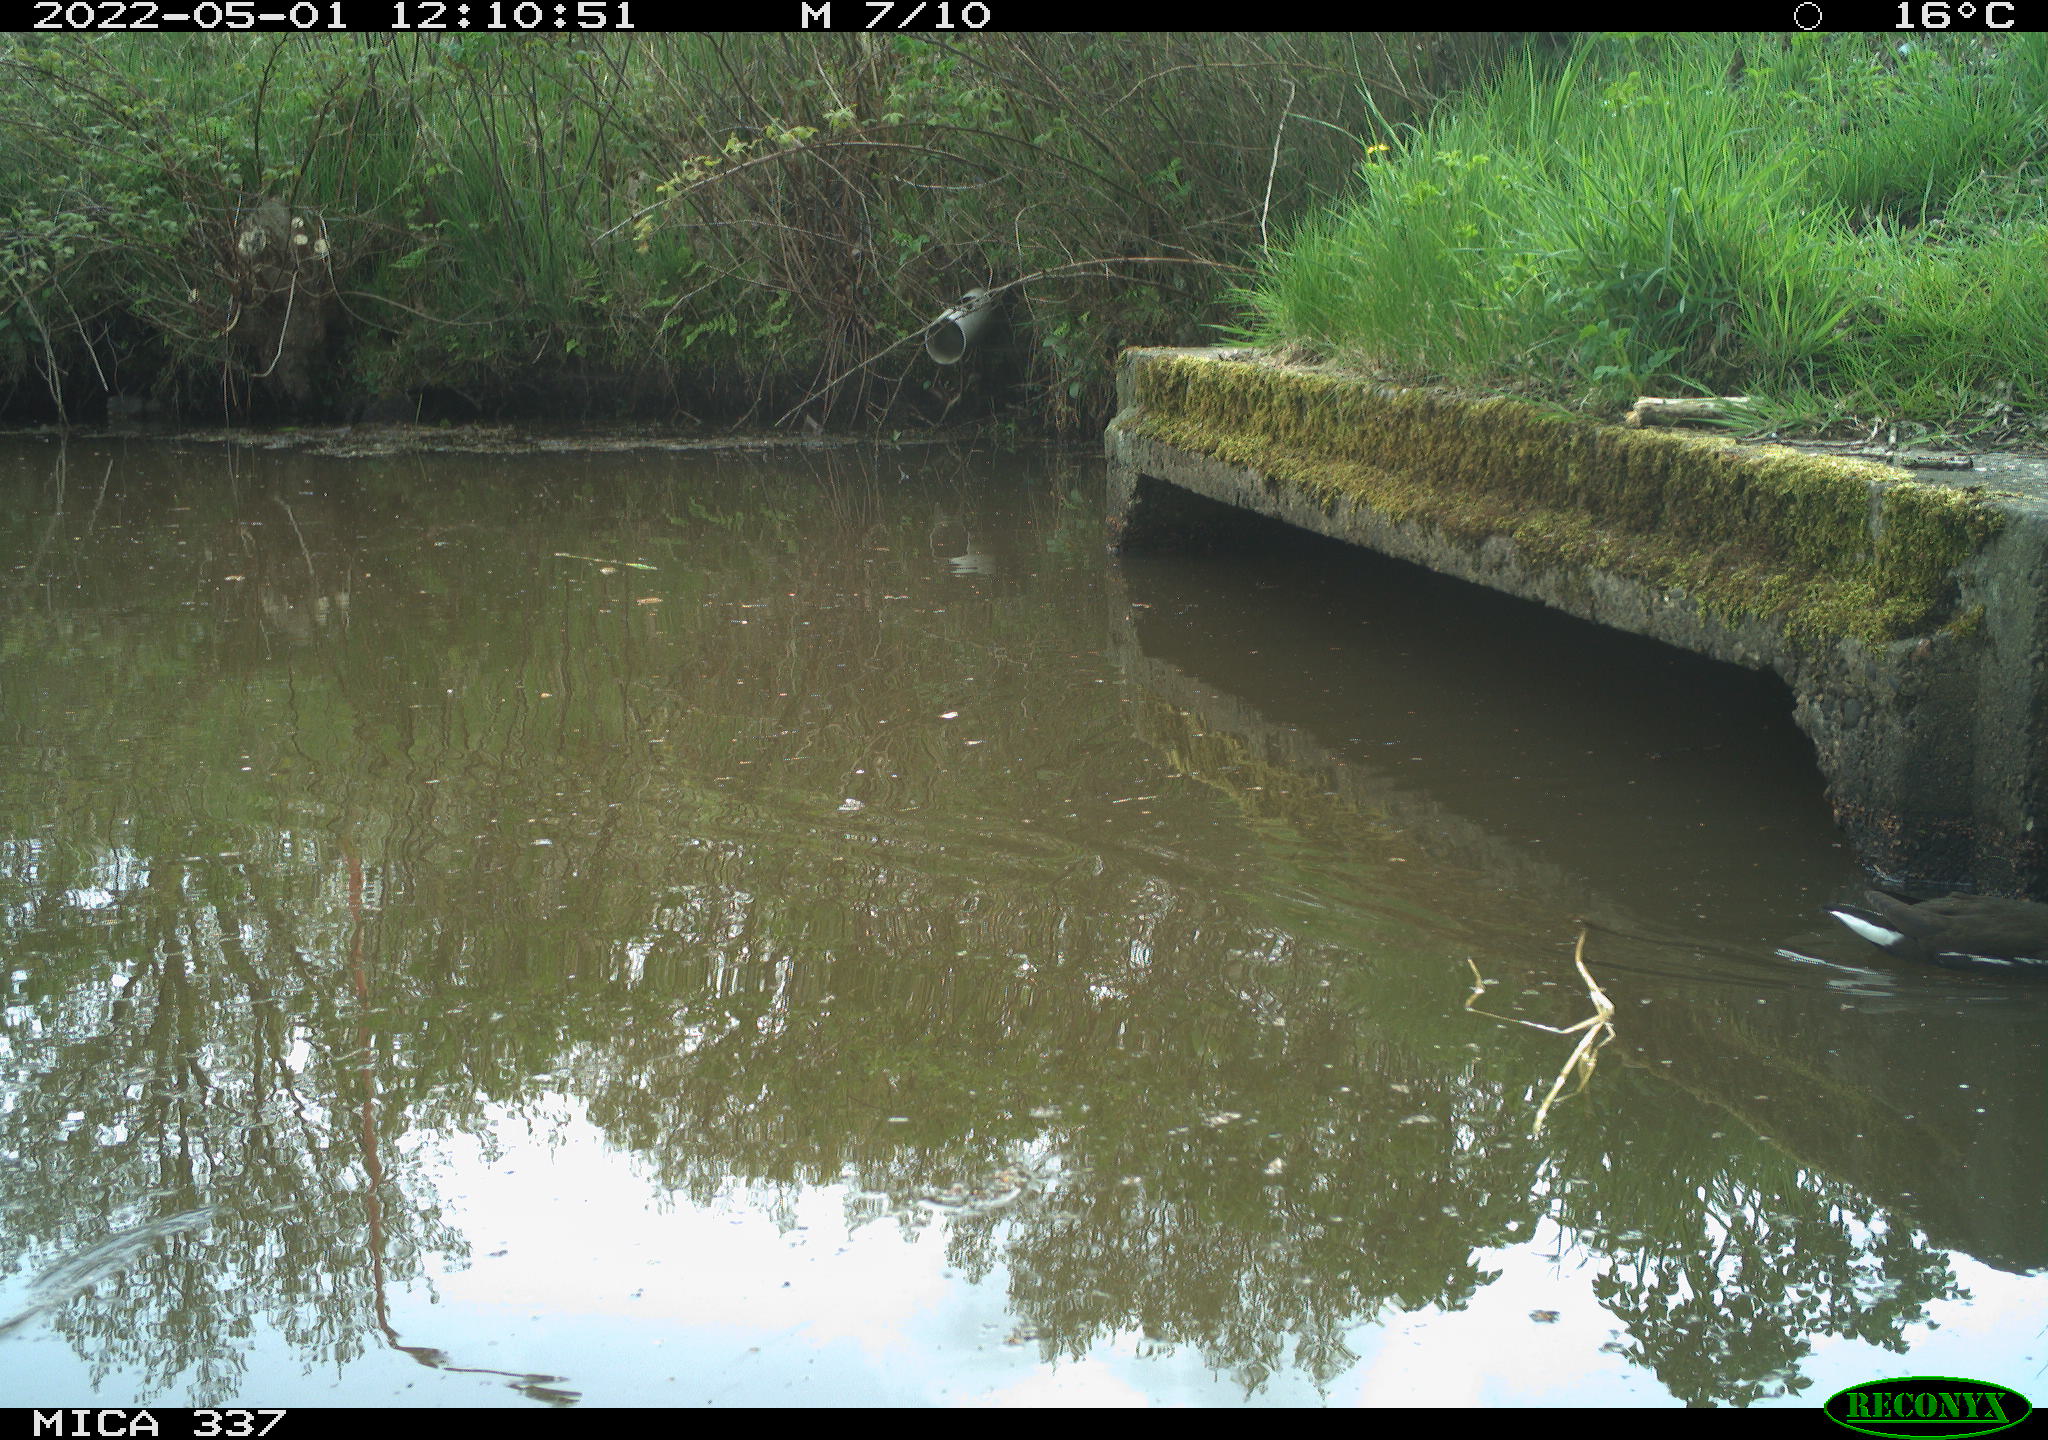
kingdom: Animalia
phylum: Chordata
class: Aves
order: Gruiformes
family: Rallidae
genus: Gallinula
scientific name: Gallinula chloropus
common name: Common moorhen
